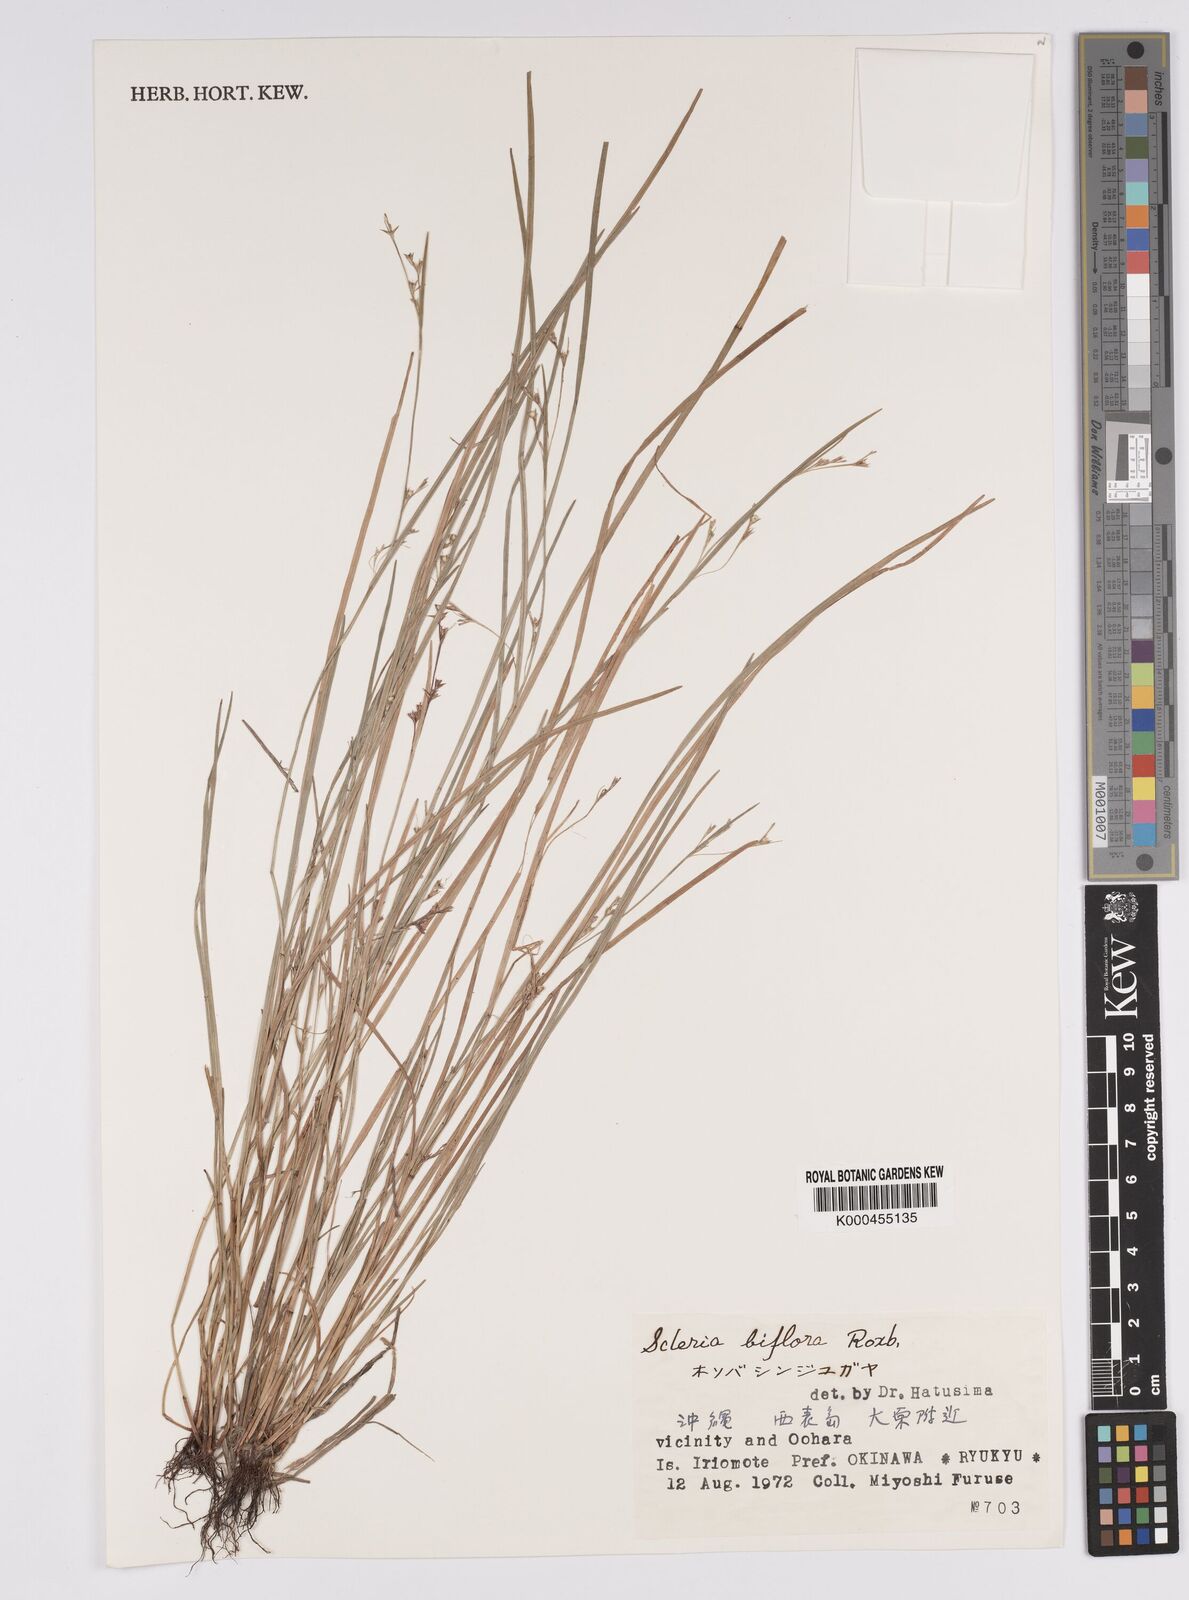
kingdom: Plantae
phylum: Tracheophyta
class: Liliopsida
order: Poales
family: Cyperaceae
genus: Scleria
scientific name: Scleria biflora
